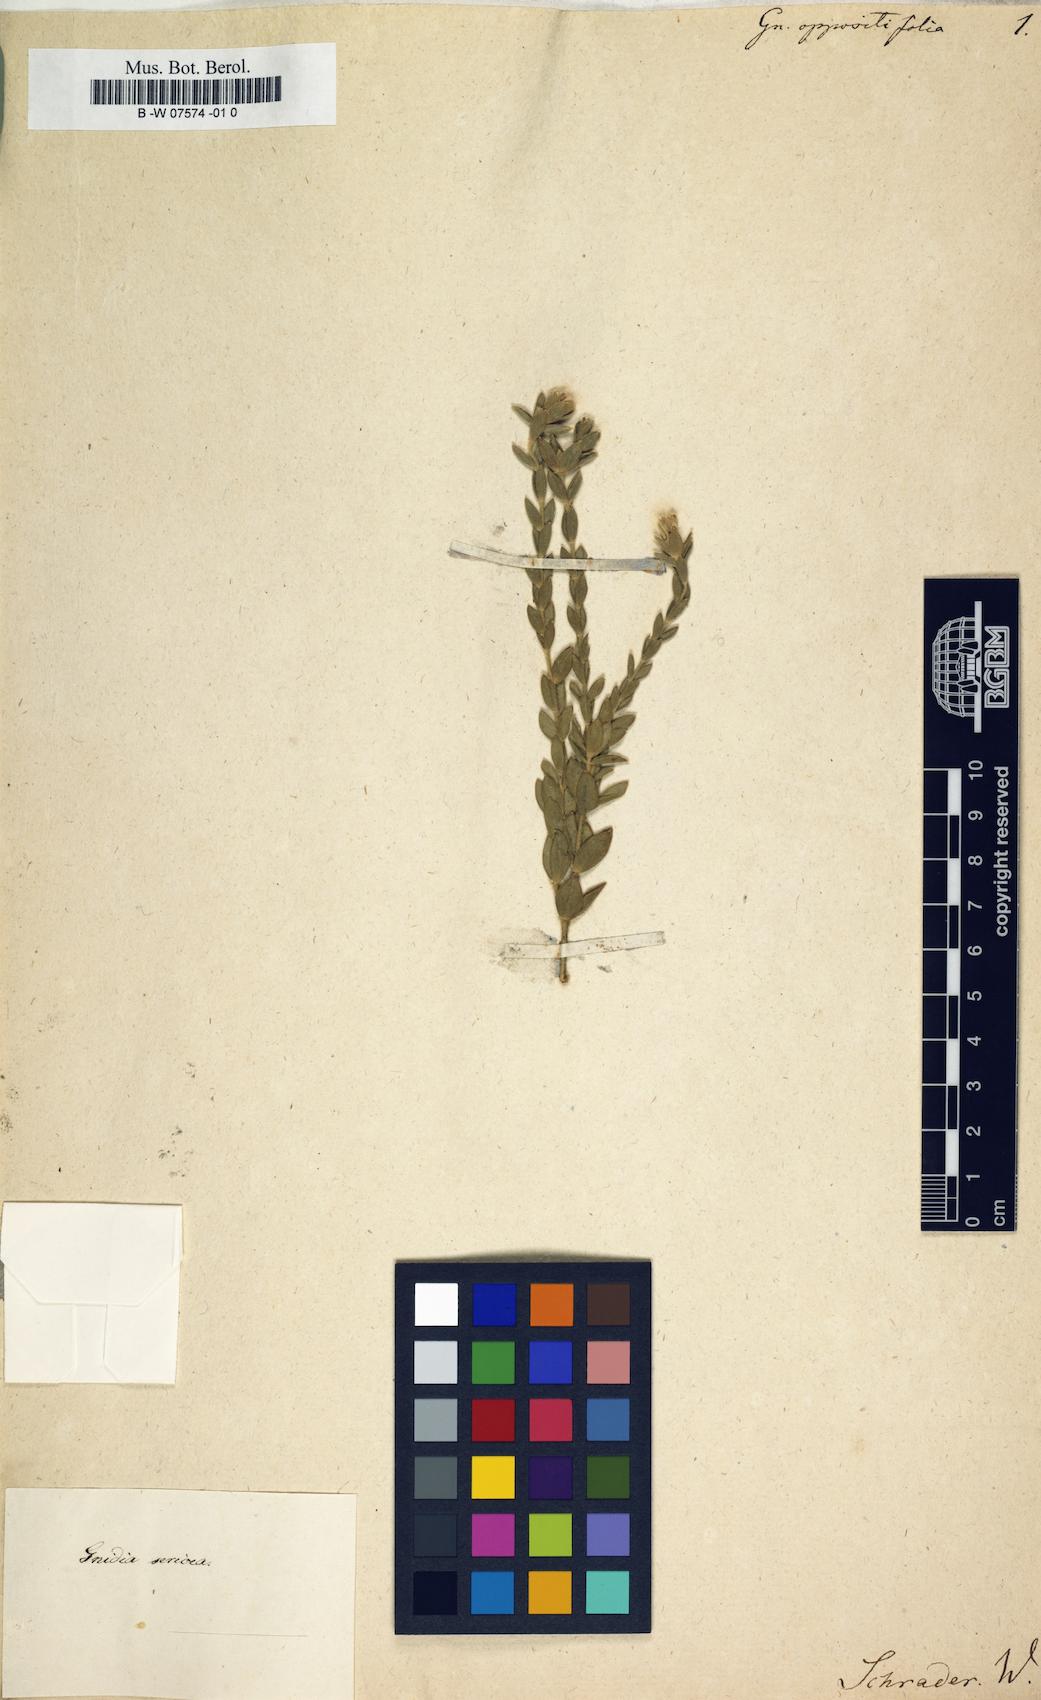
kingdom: Plantae
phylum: Tracheophyta
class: Magnoliopsida
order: Malvales
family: Thymelaeaceae
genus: Gnidia
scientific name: Gnidia oppositifolia
